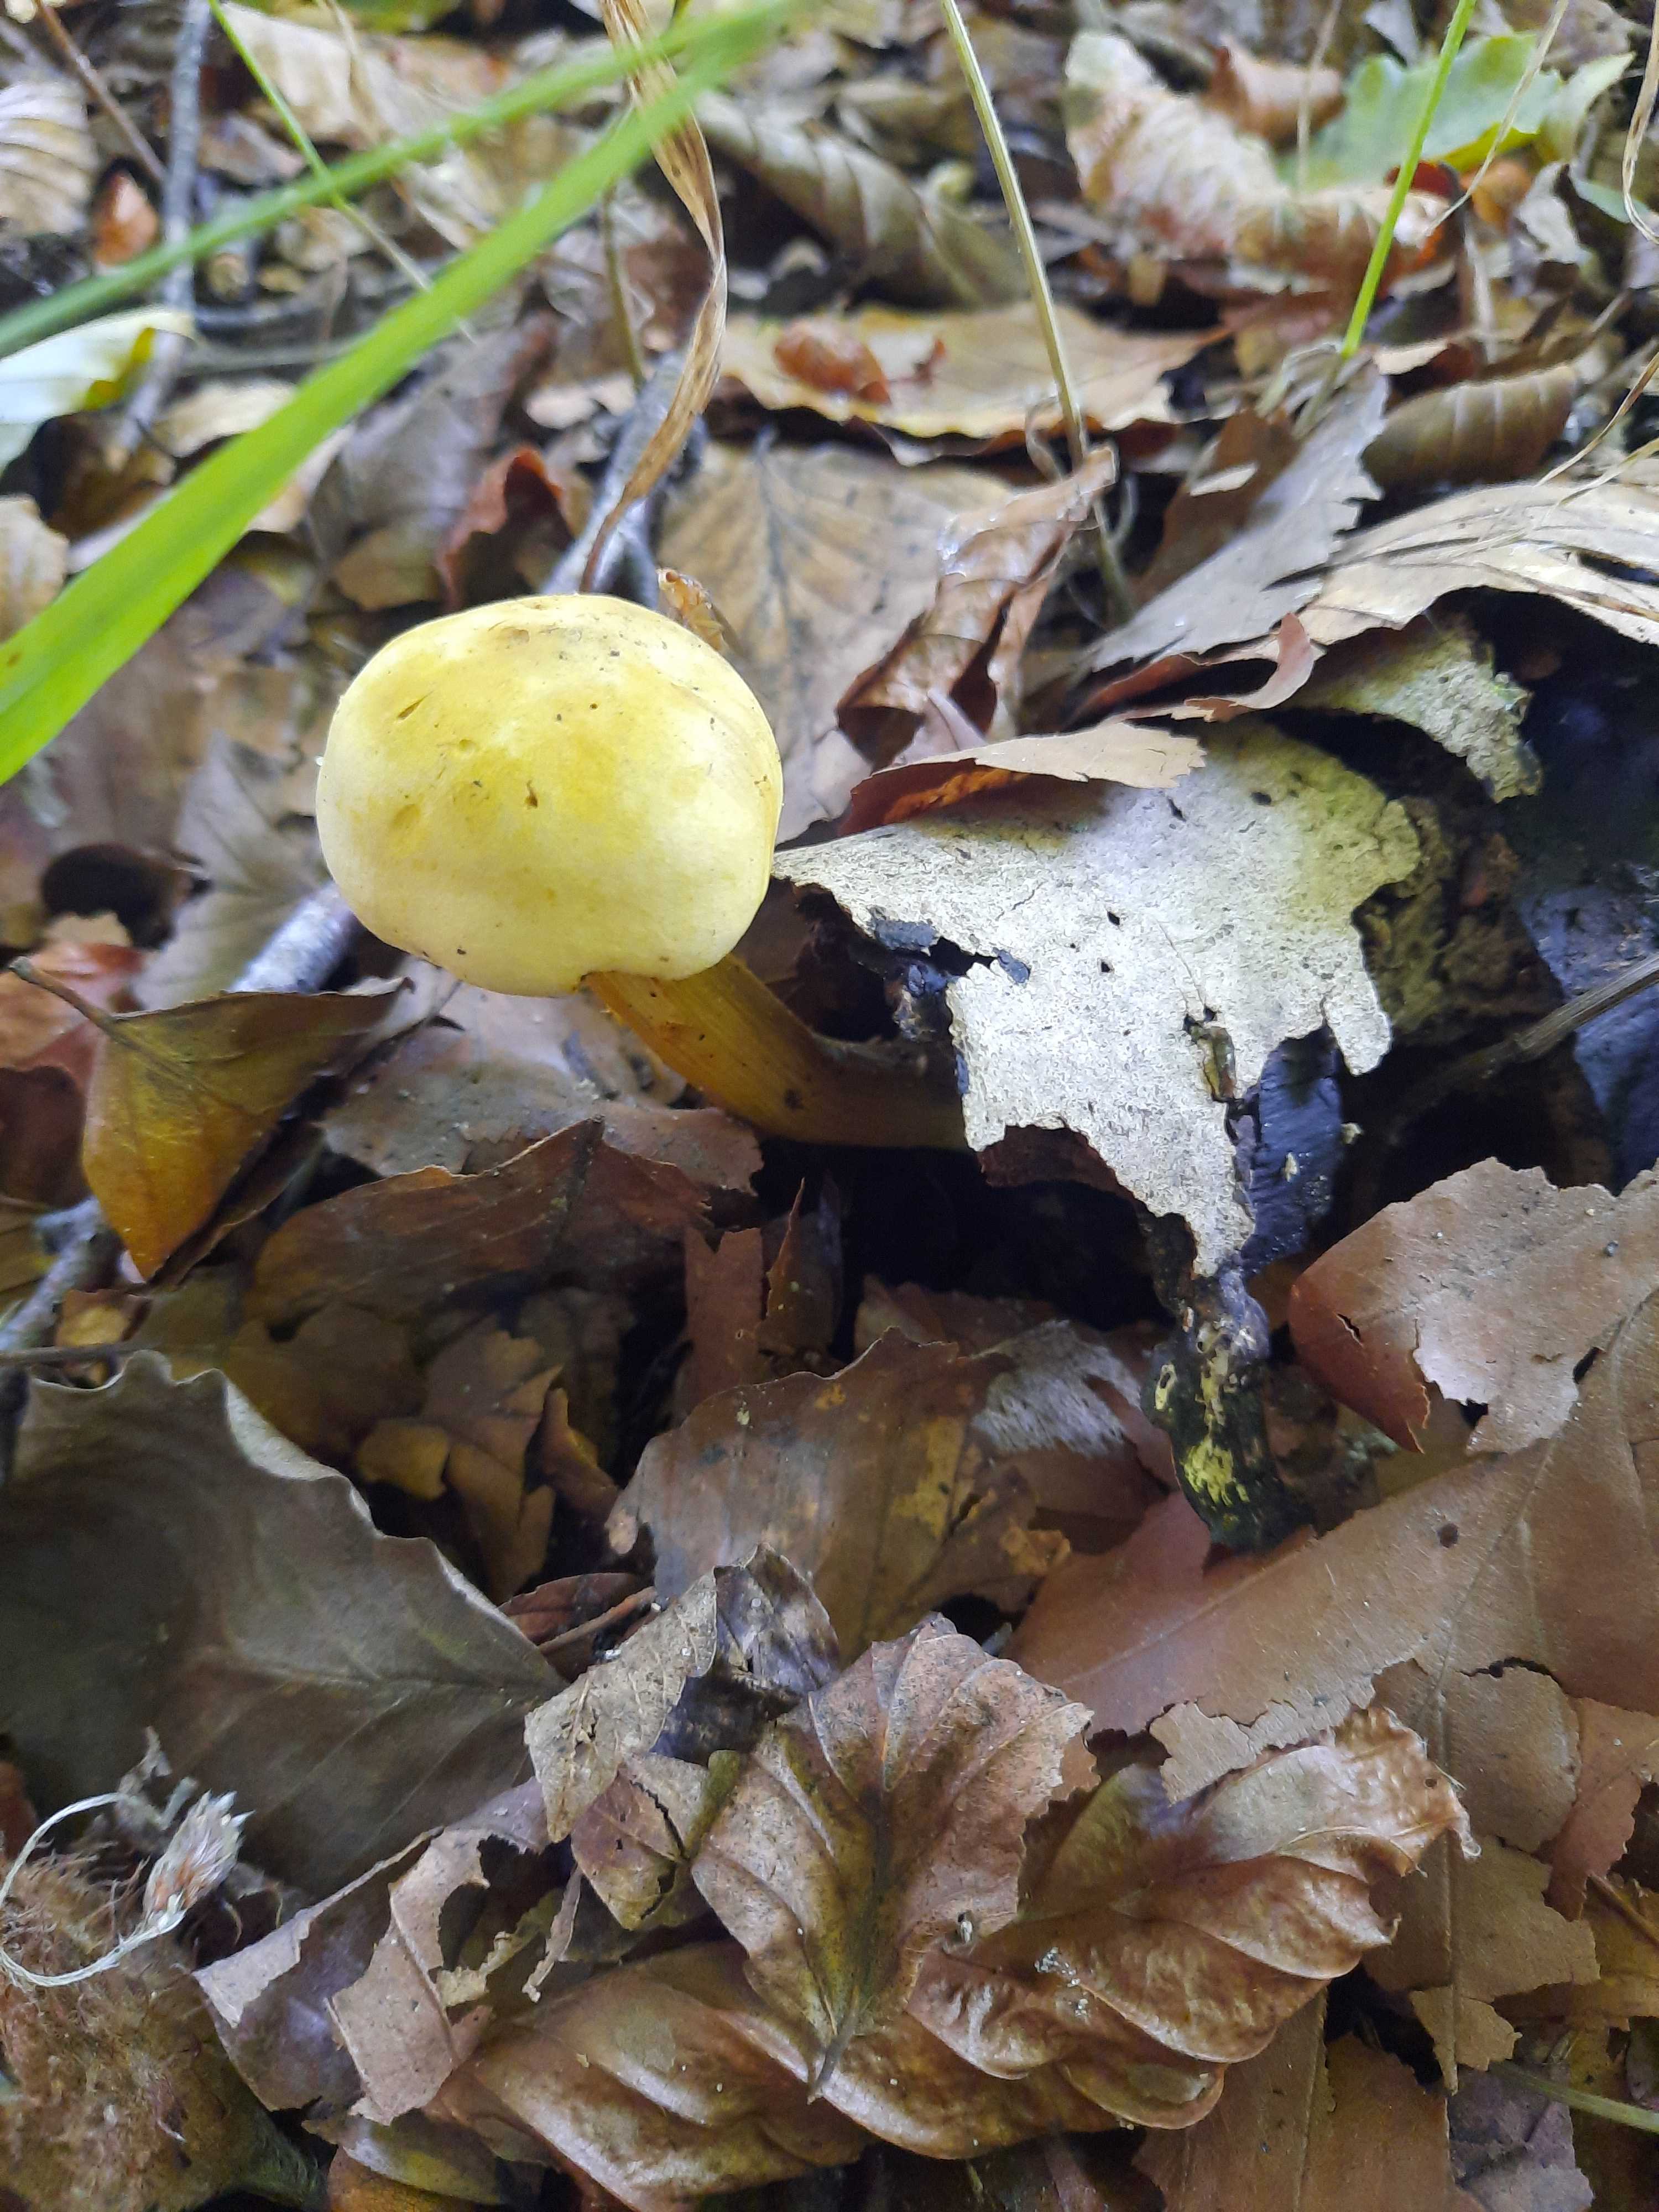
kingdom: Fungi
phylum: Basidiomycota
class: Agaricomycetes
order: Agaricales
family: Tricholomataceae
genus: Tricholoma
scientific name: Tricholoma sulphureum
